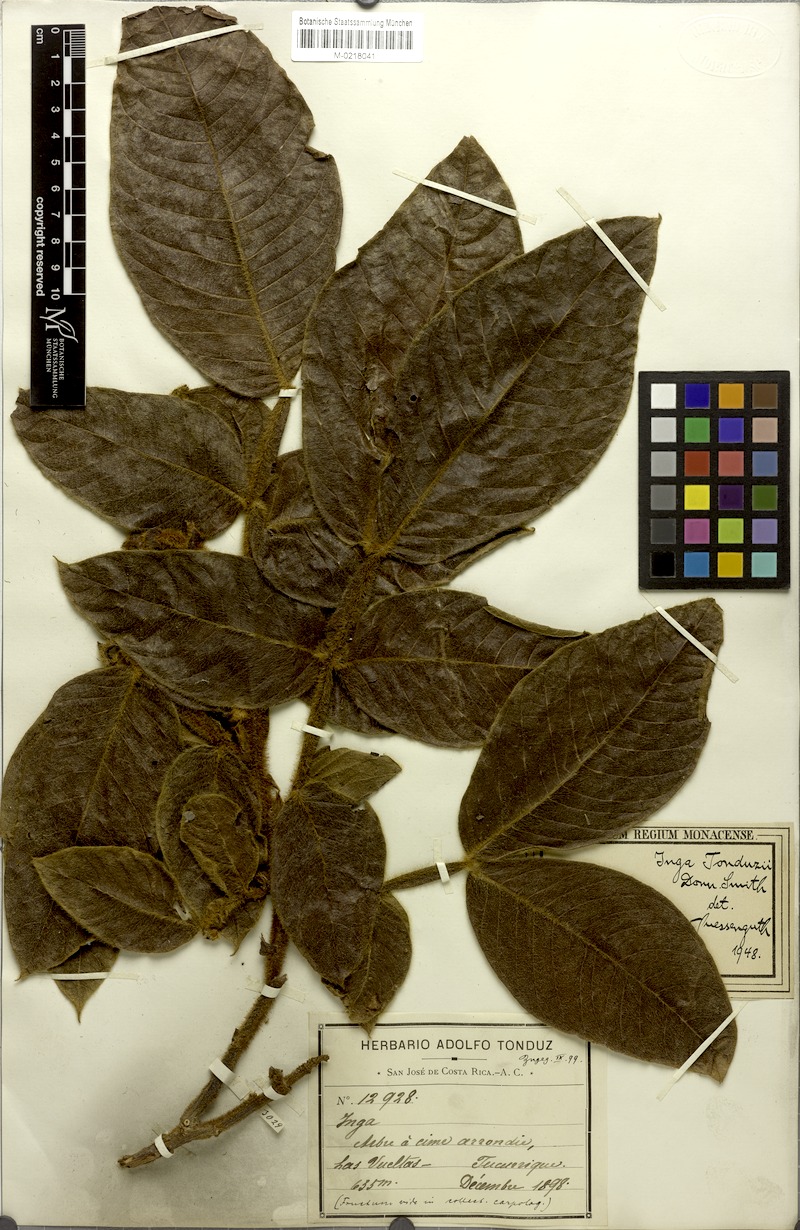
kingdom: Plantae
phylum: Tracheophyta
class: Magnoliopsida
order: Fabales
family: Fabaceae
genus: Inga
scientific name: Inga tonduzii
